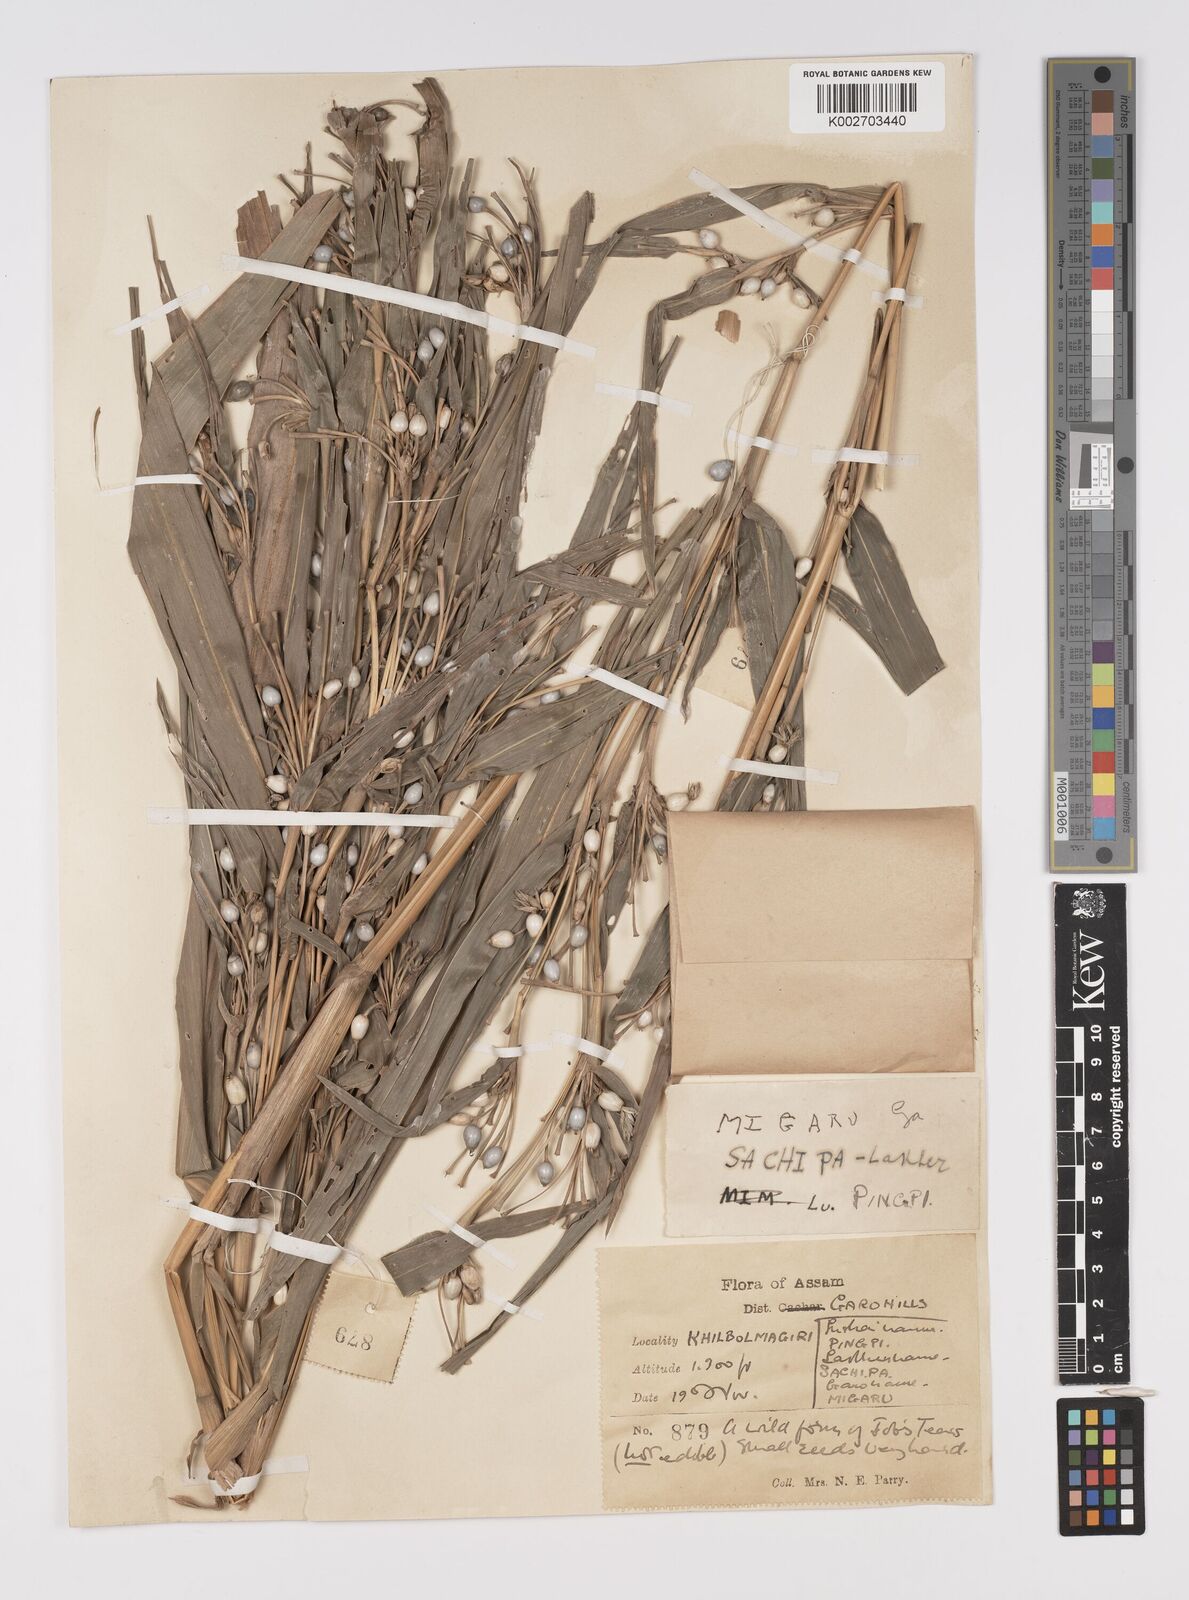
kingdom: Plantae
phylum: Tracheophyta
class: Liliopsida
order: Poales
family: Poaceae
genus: Coix
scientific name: Coix lacryma-jobi
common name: Job's tears
